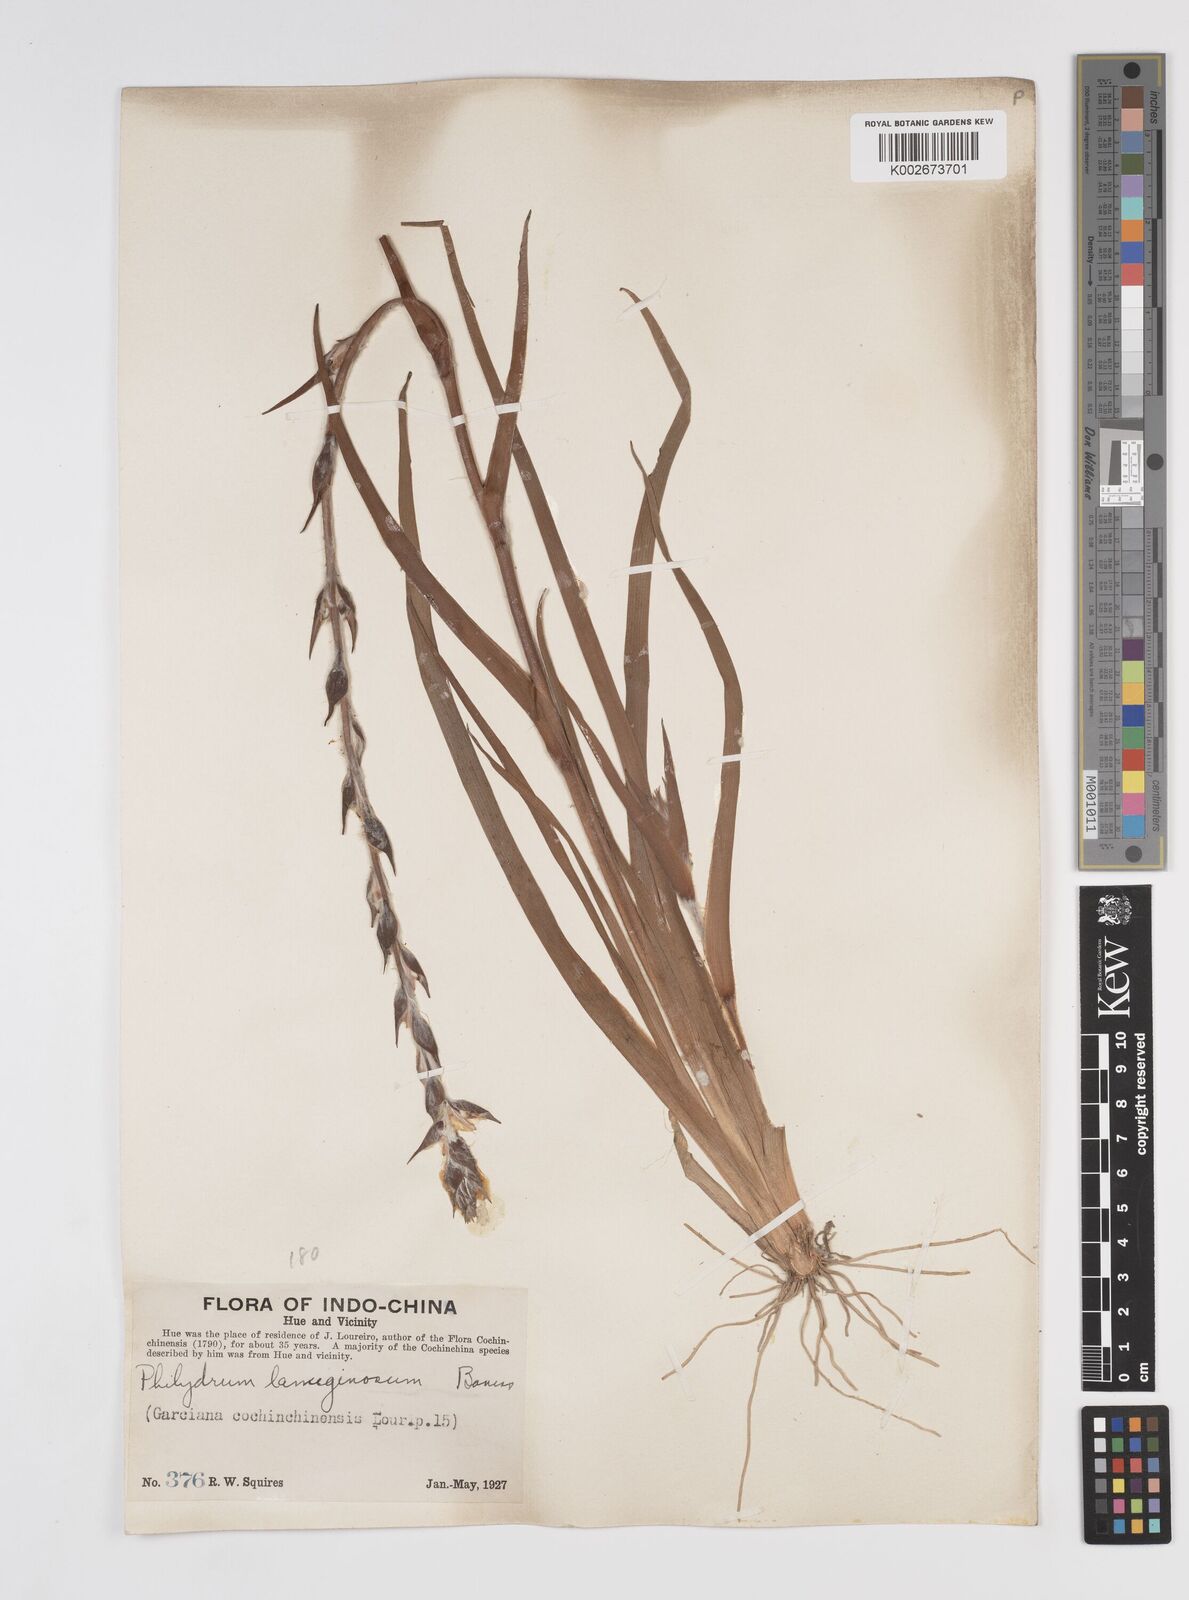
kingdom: Plantae
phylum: Tracheophyta
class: Liliopsida
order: Commelinales
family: Philydraceae
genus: Philydrum
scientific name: Philydrum lanuginosum
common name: Woolly frog's mouth
